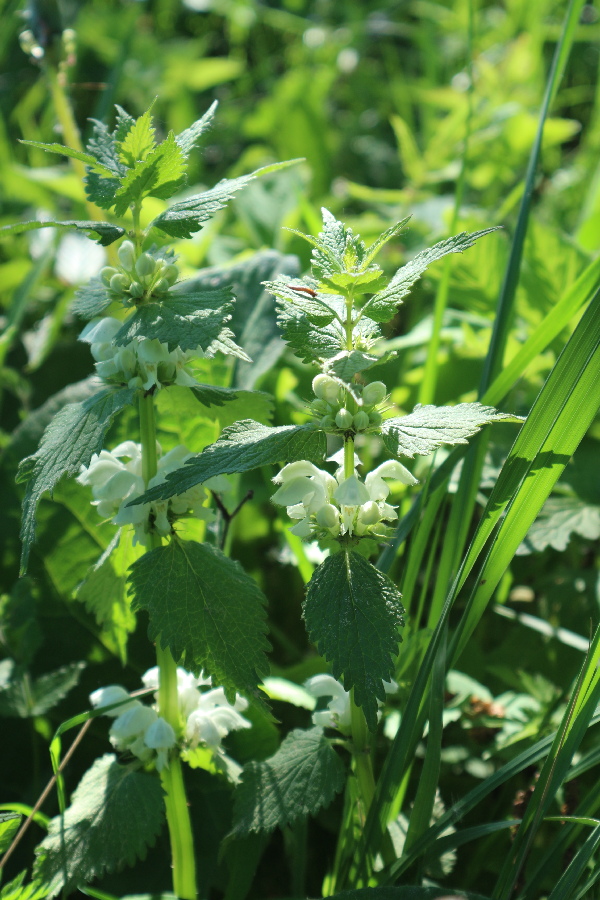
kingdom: Plantae
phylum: Tracheophyta
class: Magnoliopsida
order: Lamiales
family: Lamiaceae
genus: Lamium
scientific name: Lamium album
